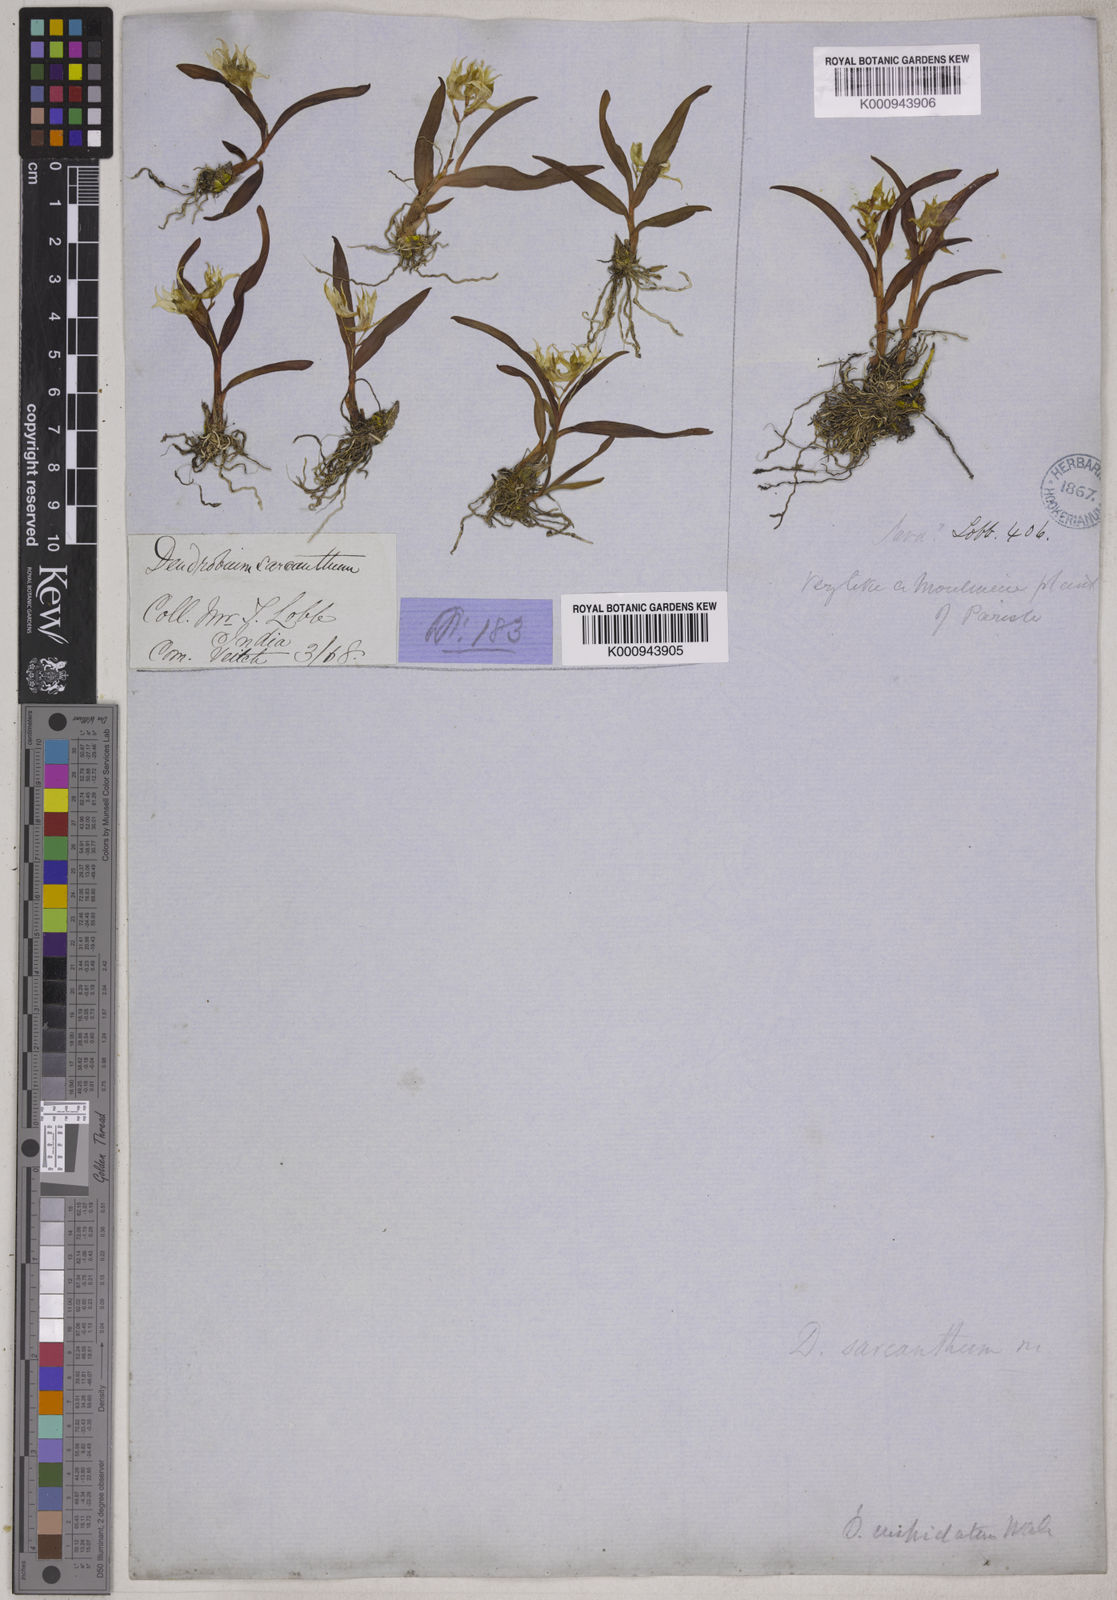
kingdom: Plantae
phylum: Tracheophyta
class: Liliopsida
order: Asparagales
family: Orchidaceae
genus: Dendrobium
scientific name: Dendrobium cuspidatum
